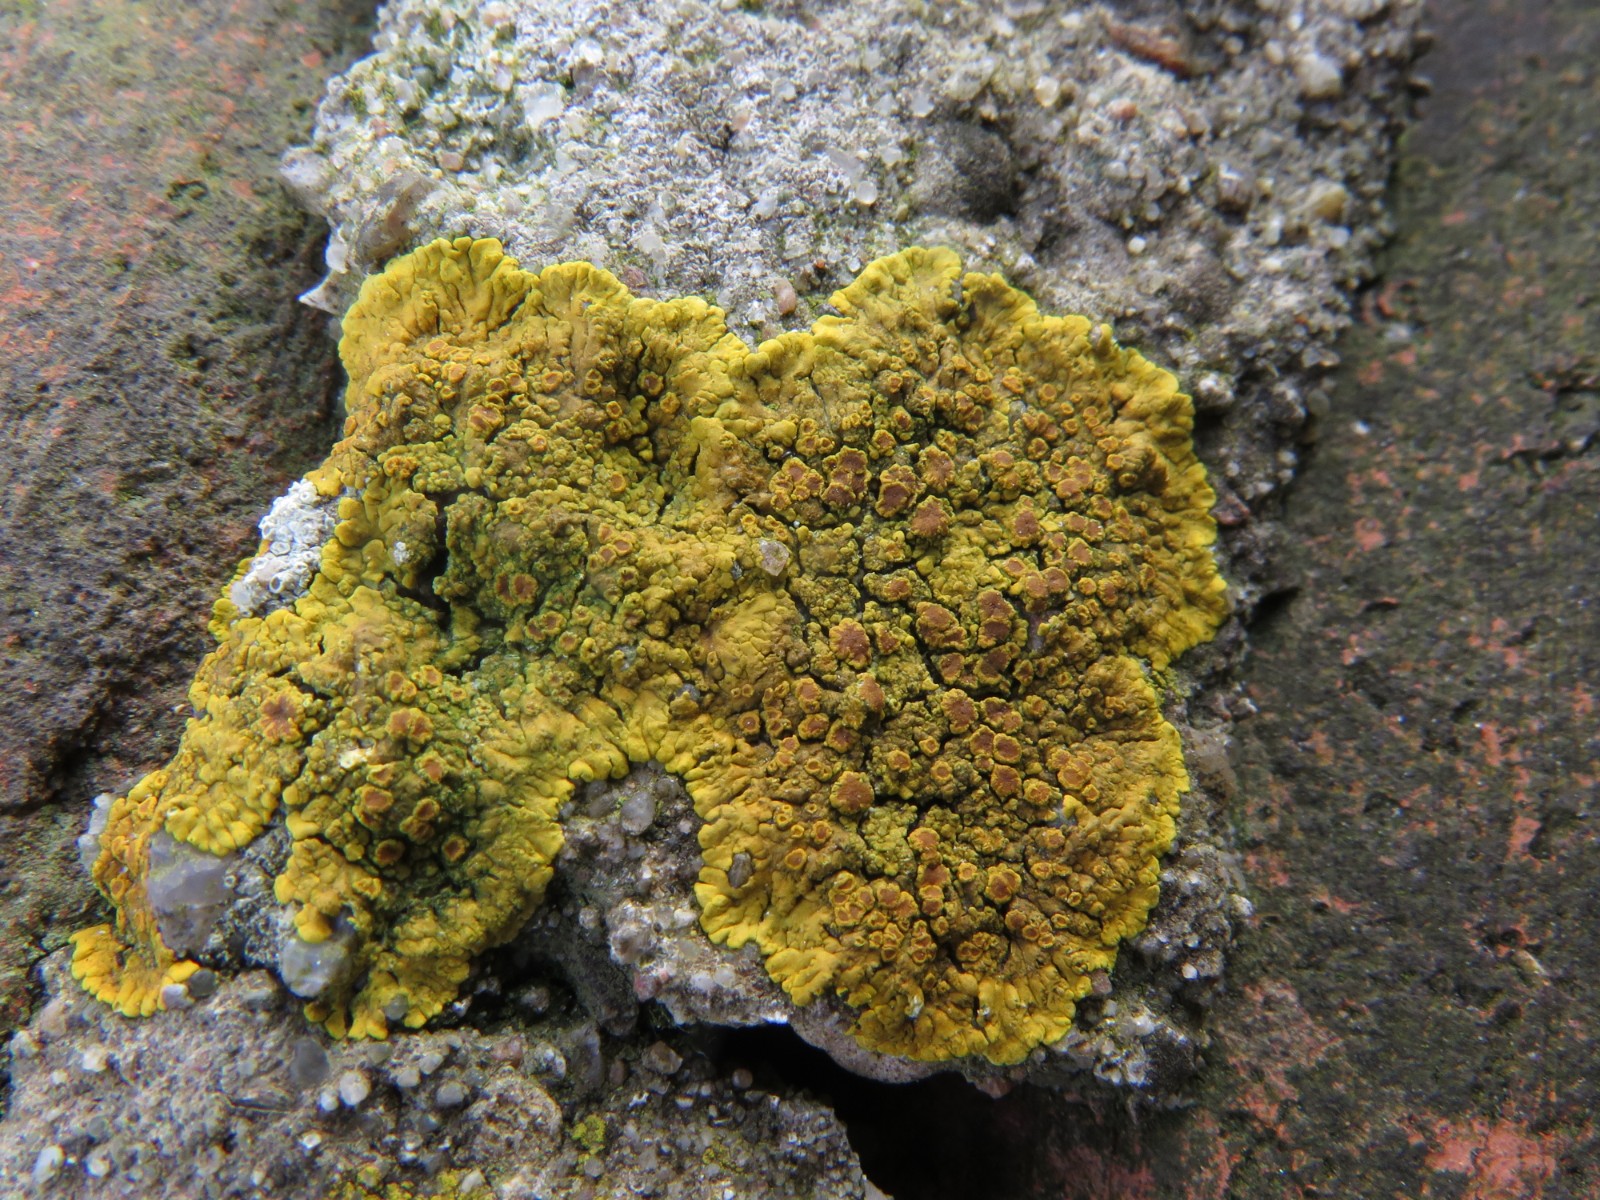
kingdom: Fungi
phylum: Ascomycota
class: Lecanoromycetes
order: Teloschistales
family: Teloschistaceae
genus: Variospora
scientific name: Variospora flavescens
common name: kalk-orangelav
